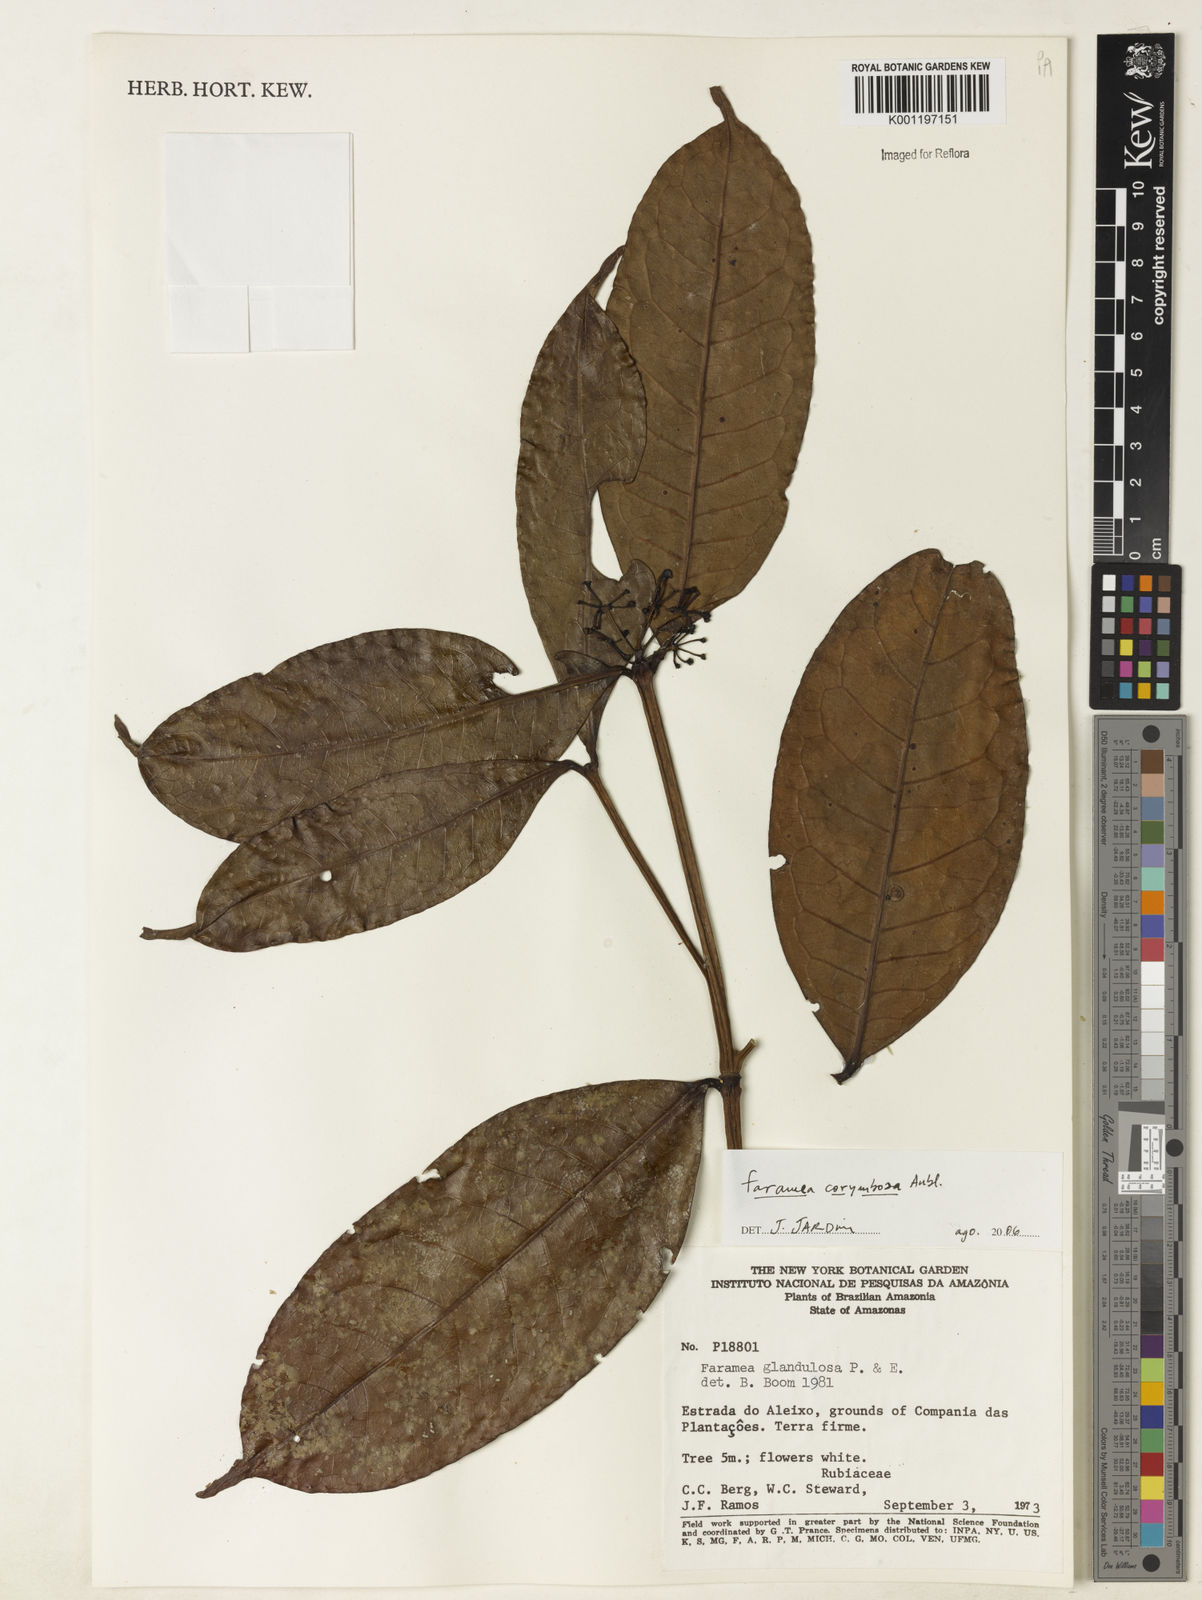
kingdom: Plantae
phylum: Tracheophyta
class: Magnoliopsida
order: Gentianales
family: Rubiaceae
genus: Faramea
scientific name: Faramea corymbosa
